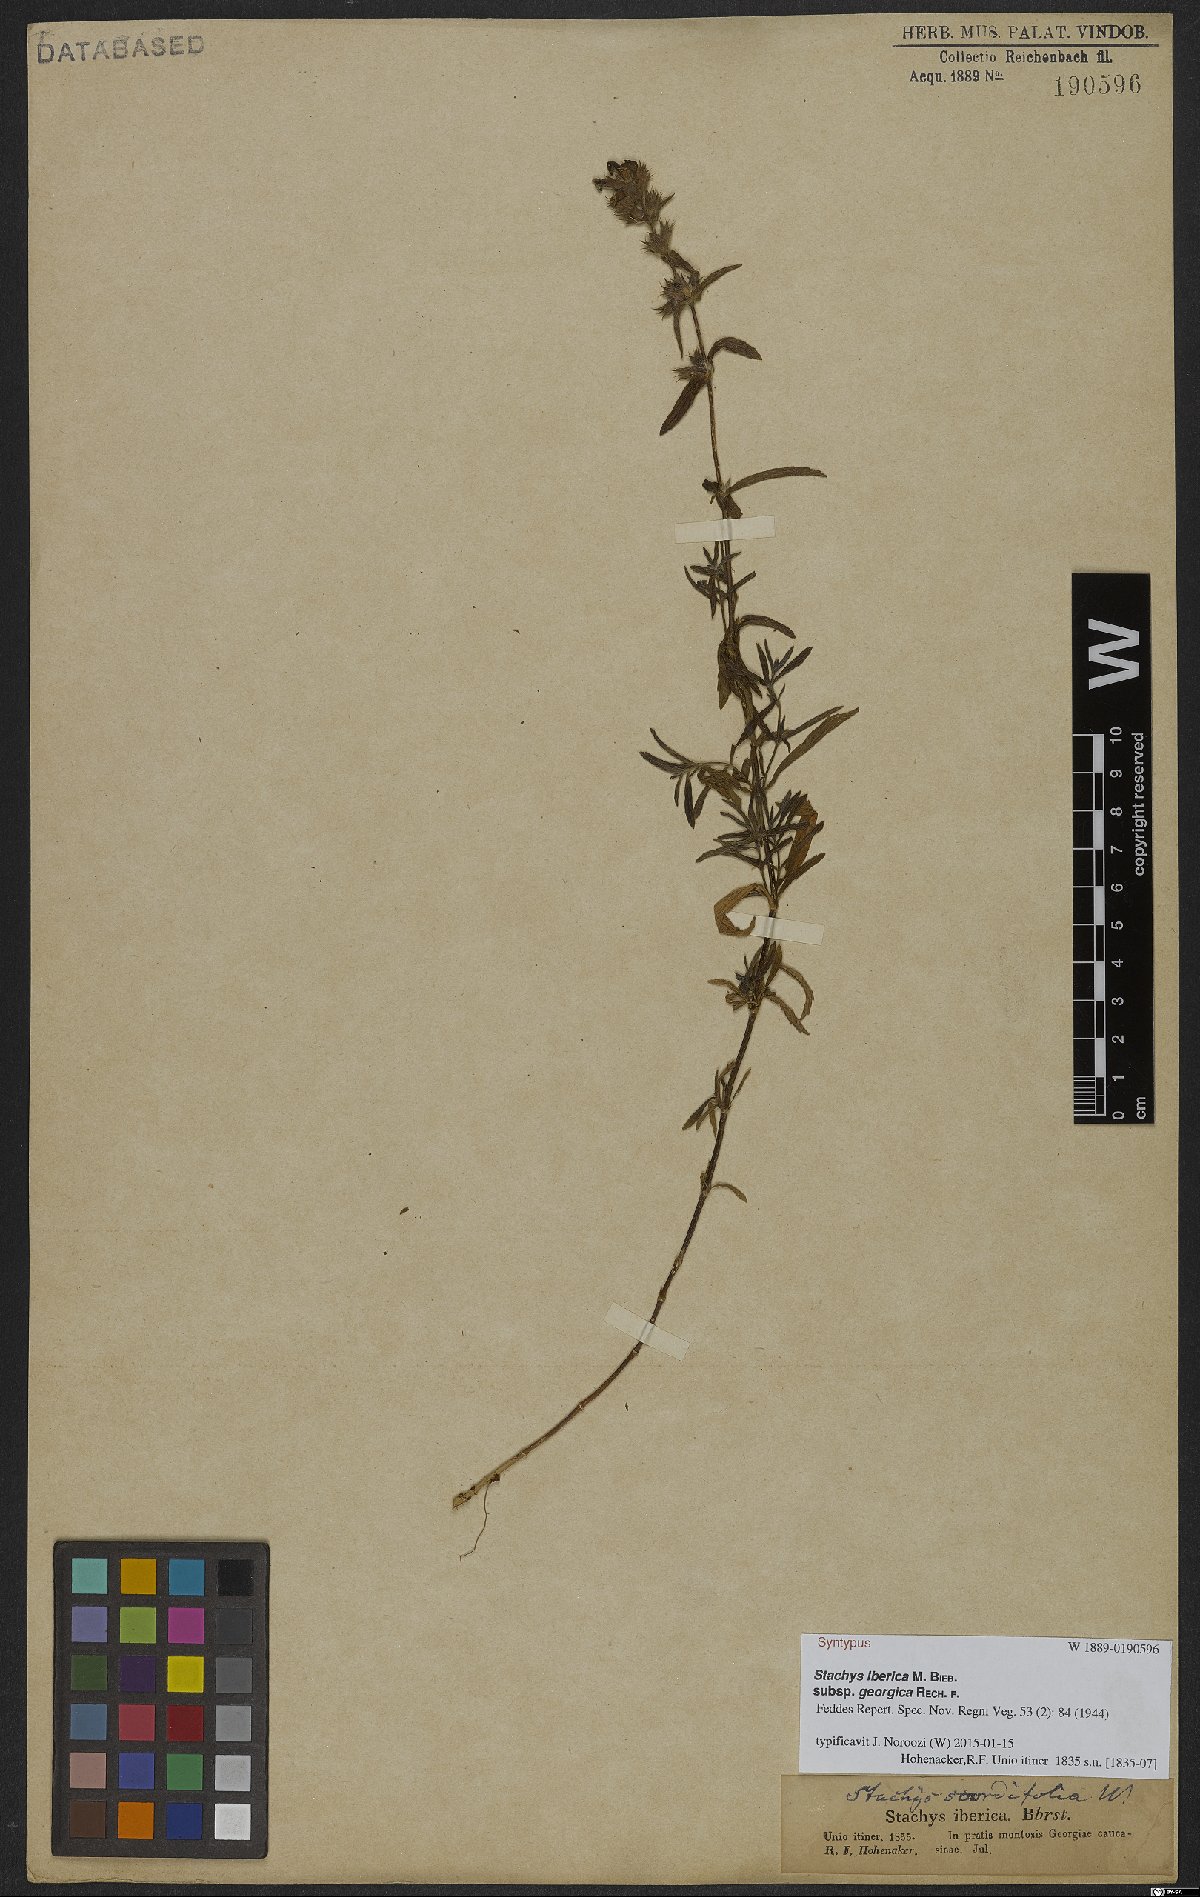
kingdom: Plantae
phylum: Tracheophyta
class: Magnoliopsida
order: Lamiales
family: Lamiaceae
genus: Stachys
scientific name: Stachys iberica
